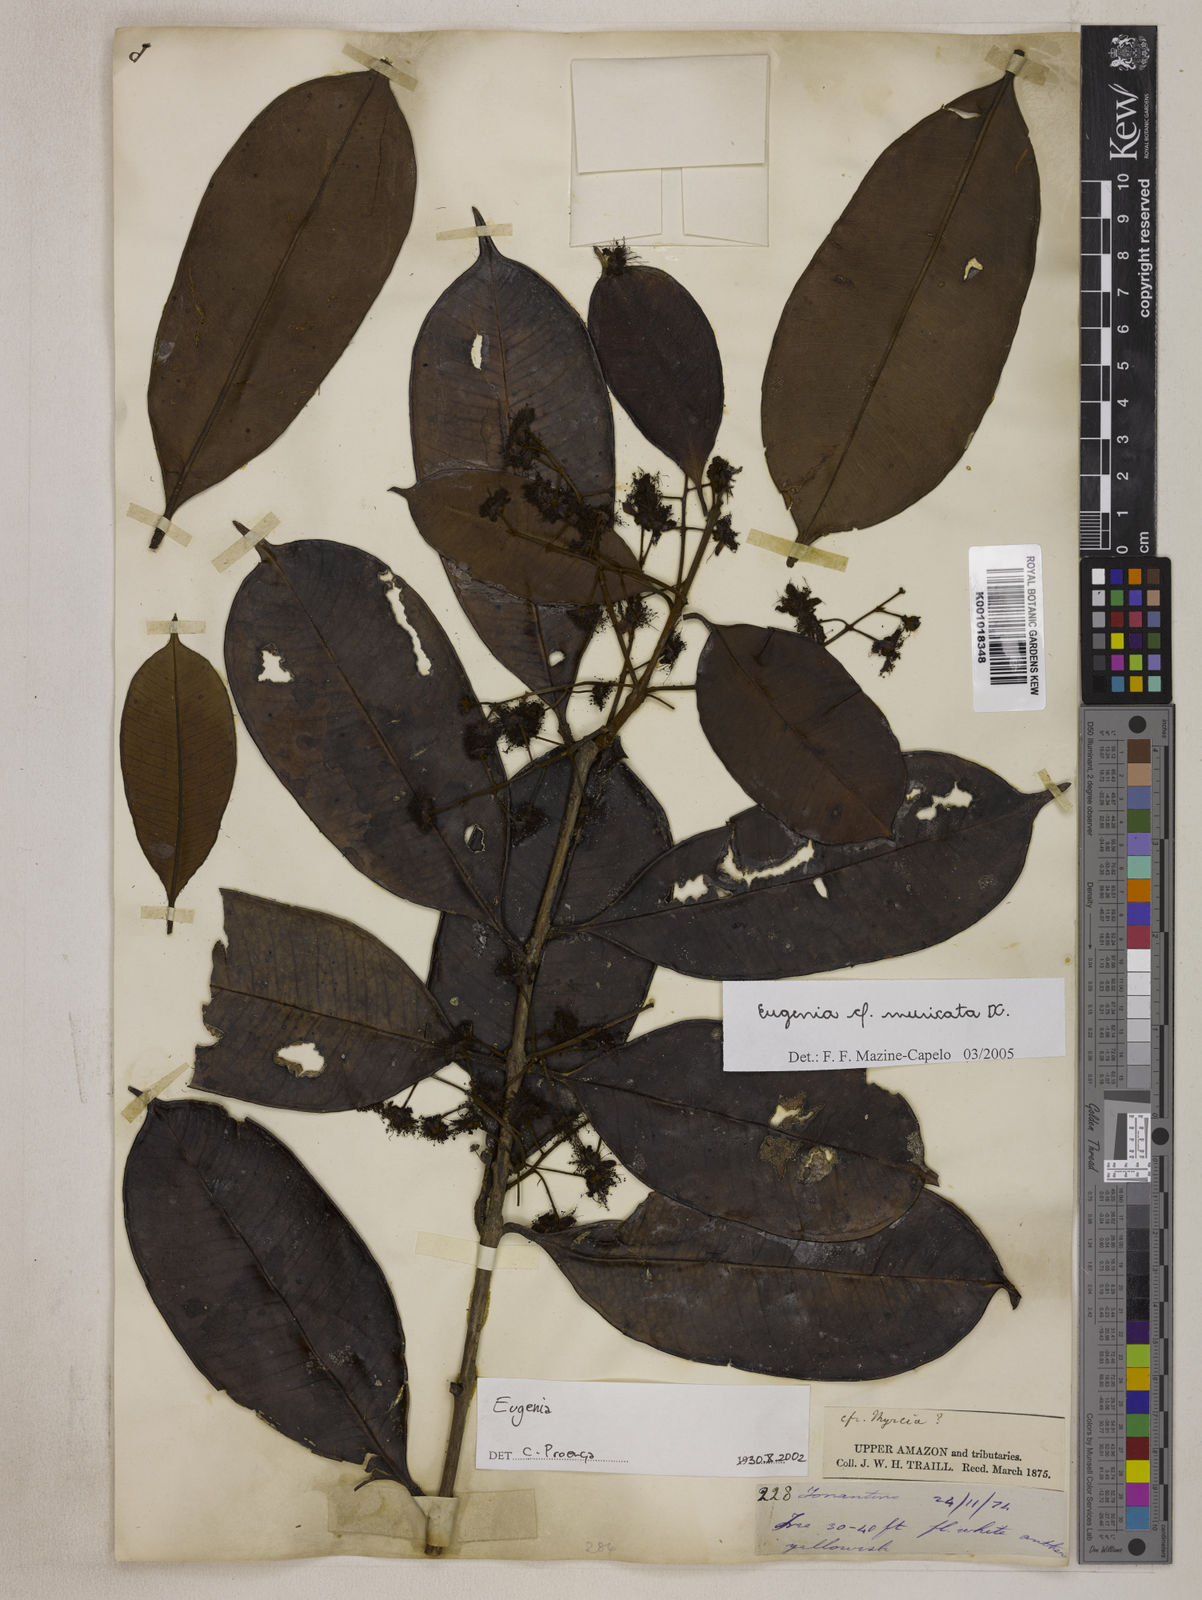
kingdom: Plantae
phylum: Tracheophyta
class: Magnoliopsida
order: Myrtales
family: Myrtaceae
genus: Eugenia
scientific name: Eugenia muricata
